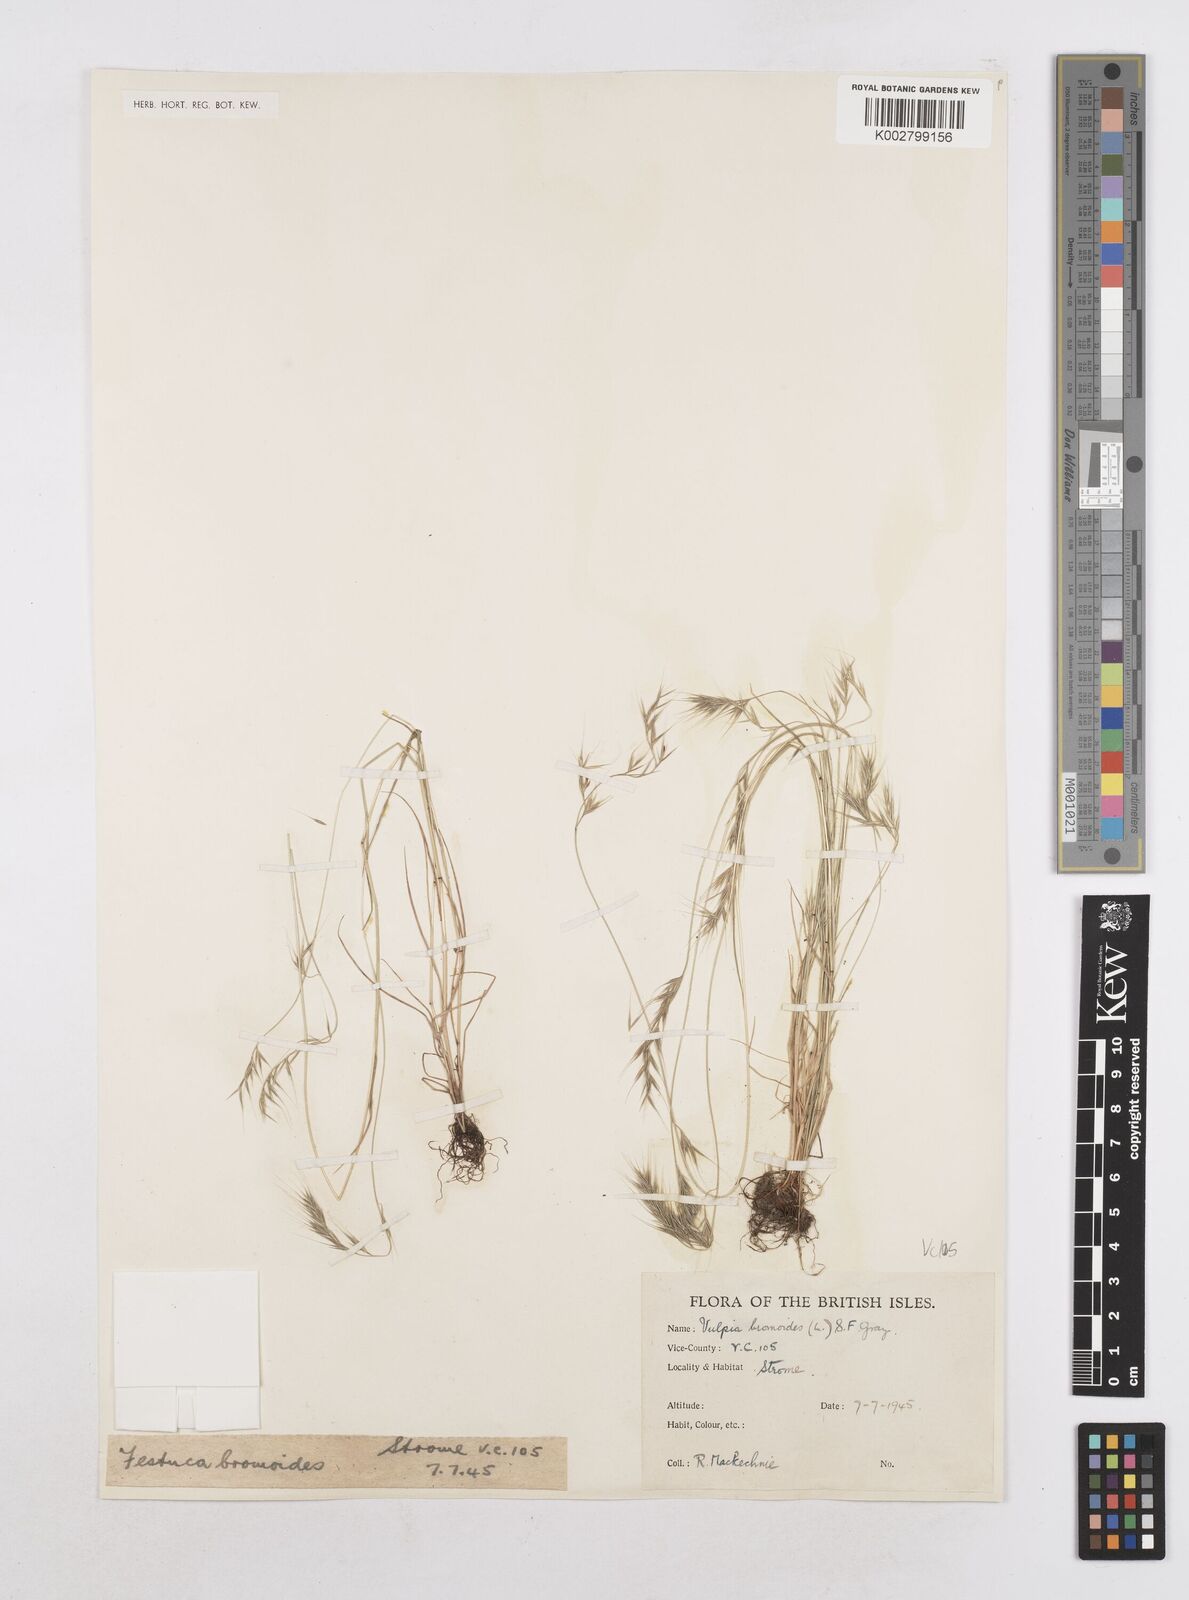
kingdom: Plantae
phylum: Tracheophyta
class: Liliopsida
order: Poales
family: Poaceae
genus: Festuca
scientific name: Festuca bromoides
